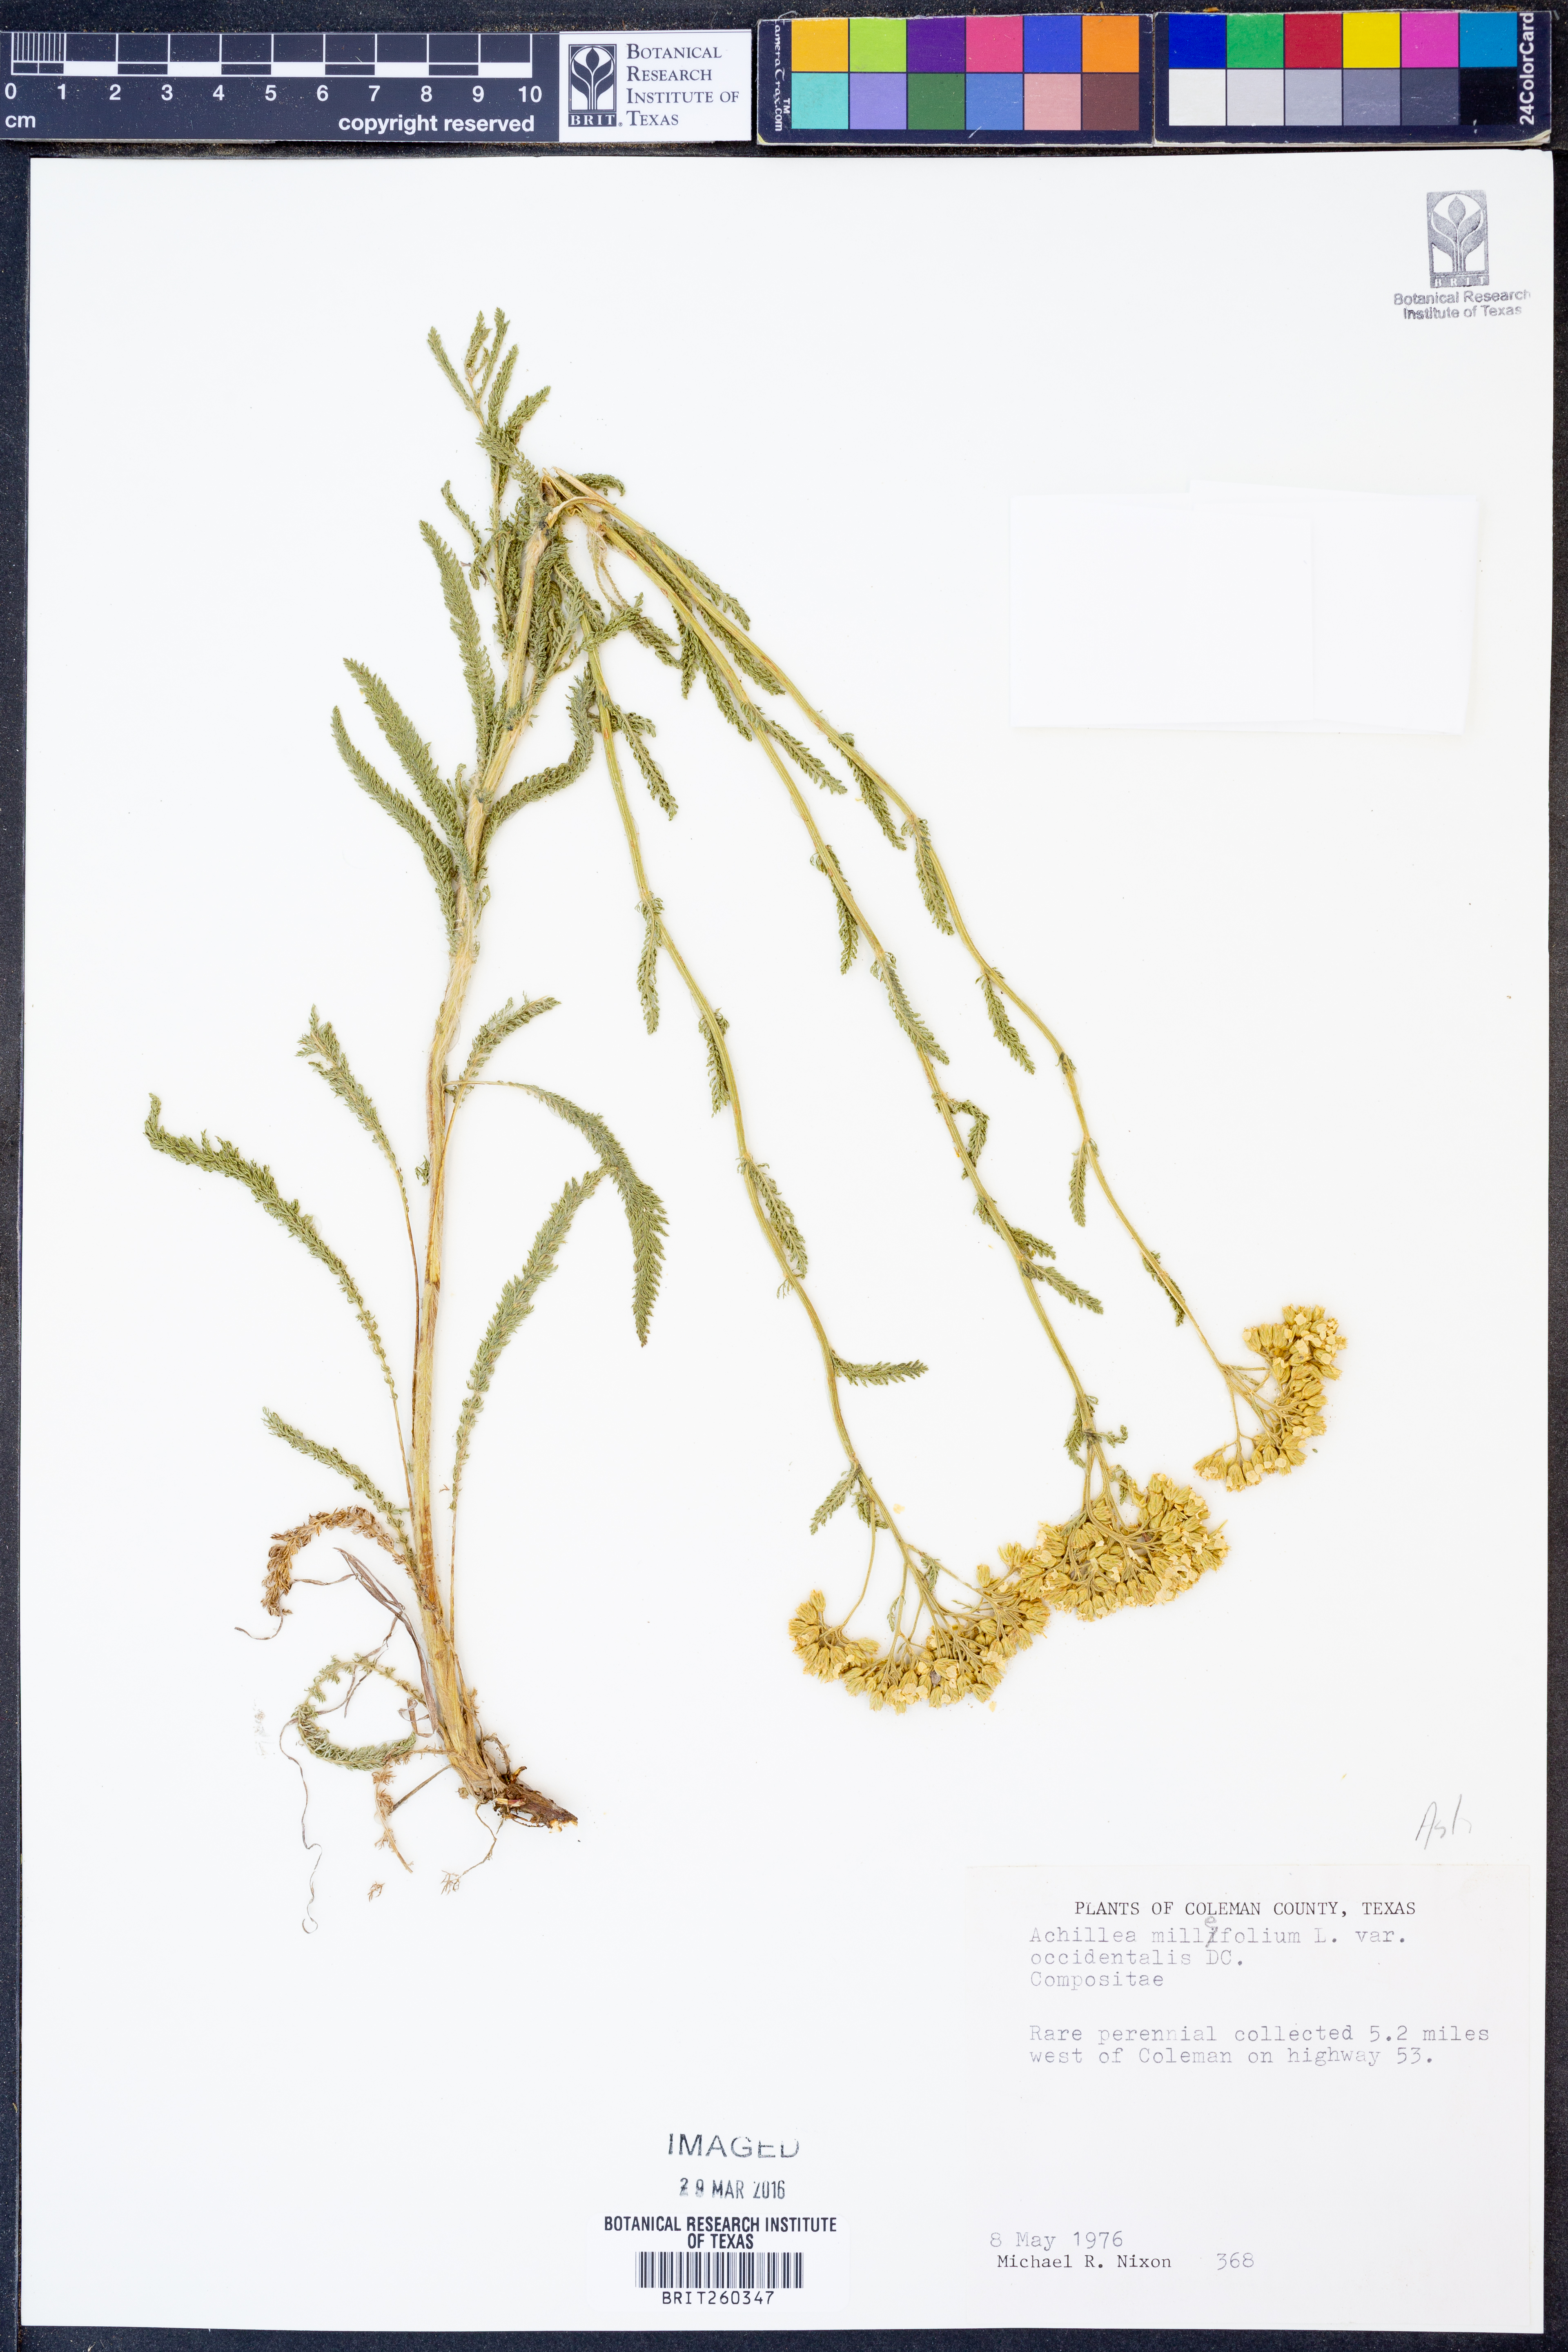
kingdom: Plantae
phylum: Tracheophyta
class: Magnoliopsida
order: Asterales
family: Asteraceae
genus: Achillea
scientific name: Achillea millefolium
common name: Yarrow
